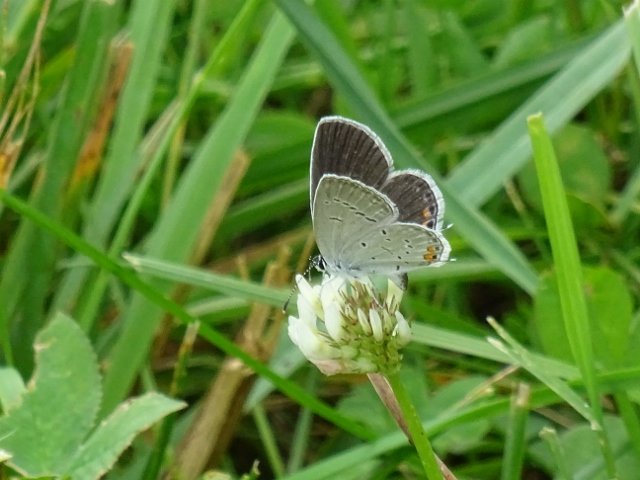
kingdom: Animalia
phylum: Arthropoda
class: Insecta
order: Lepidoptera
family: Lycaenidae
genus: Elkalyce
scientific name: Elkalyce comyntas
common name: Eastern Tailed-Blue
